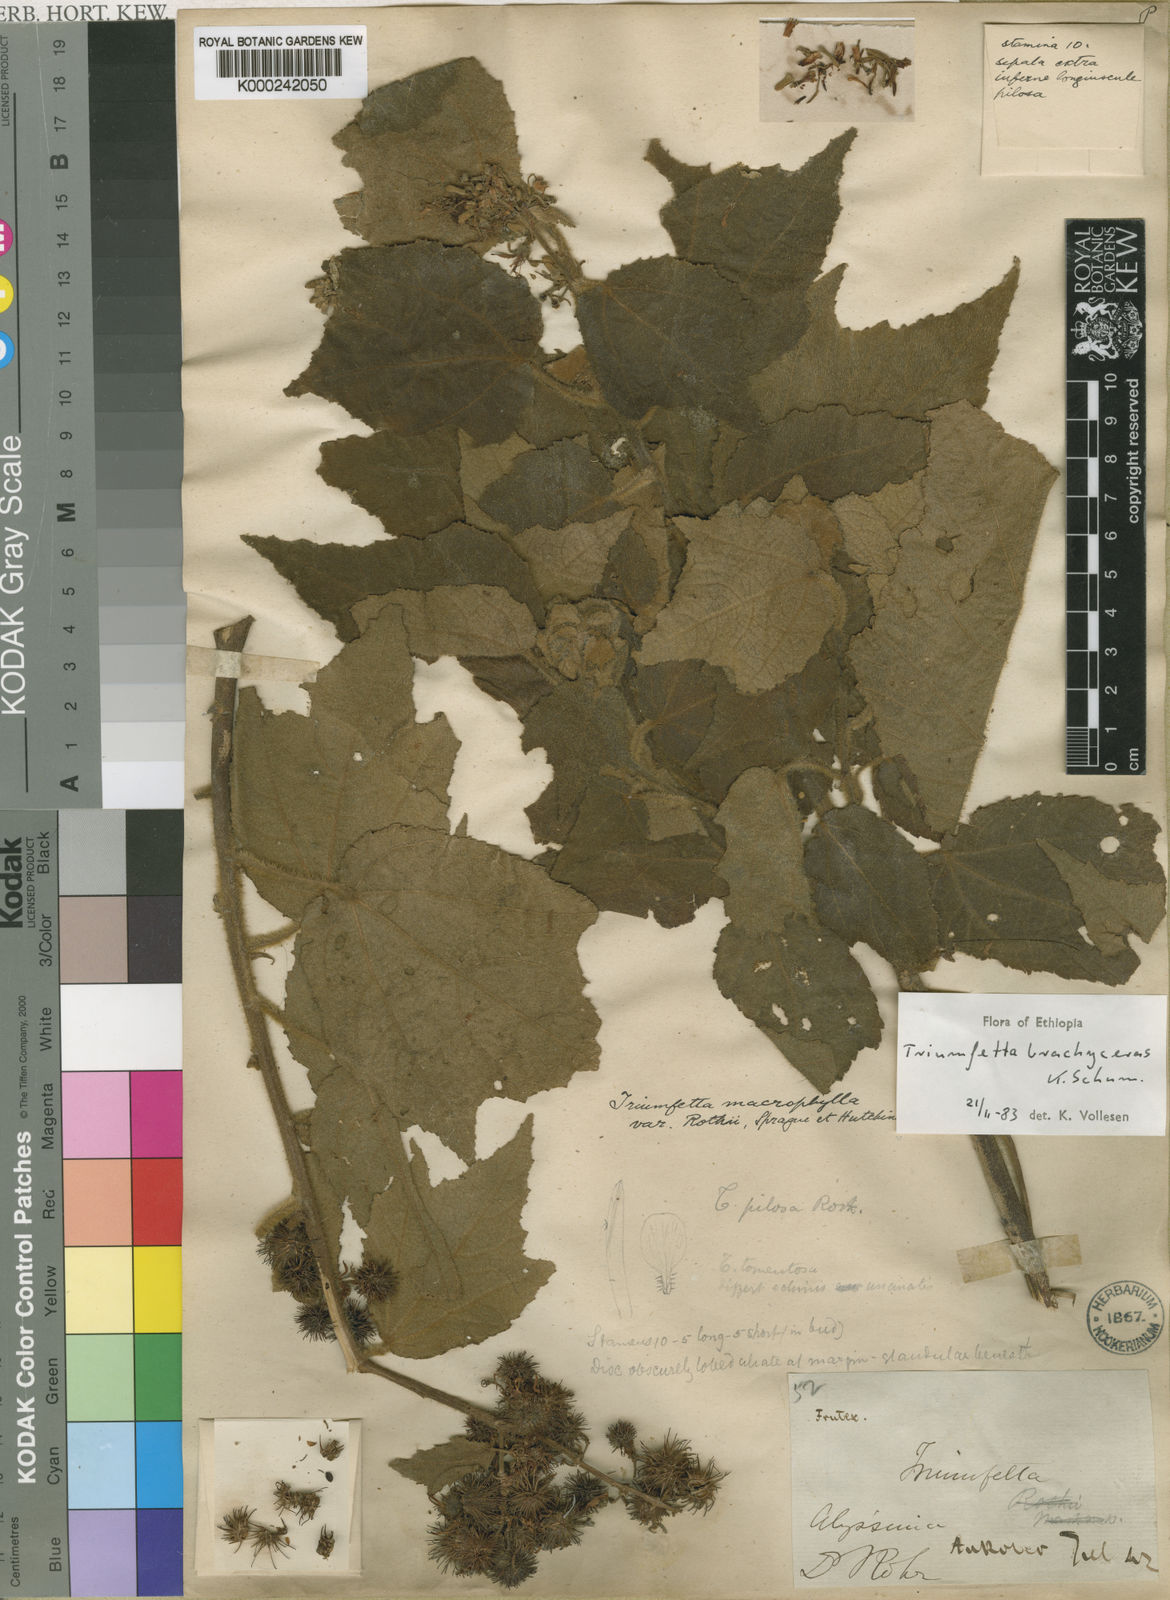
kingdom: Plantae
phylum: Tracheophyta
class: Magnoliopsida
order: Malvales
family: Malvaceae
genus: Triumfetta
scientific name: Triumfetta althaeoides
